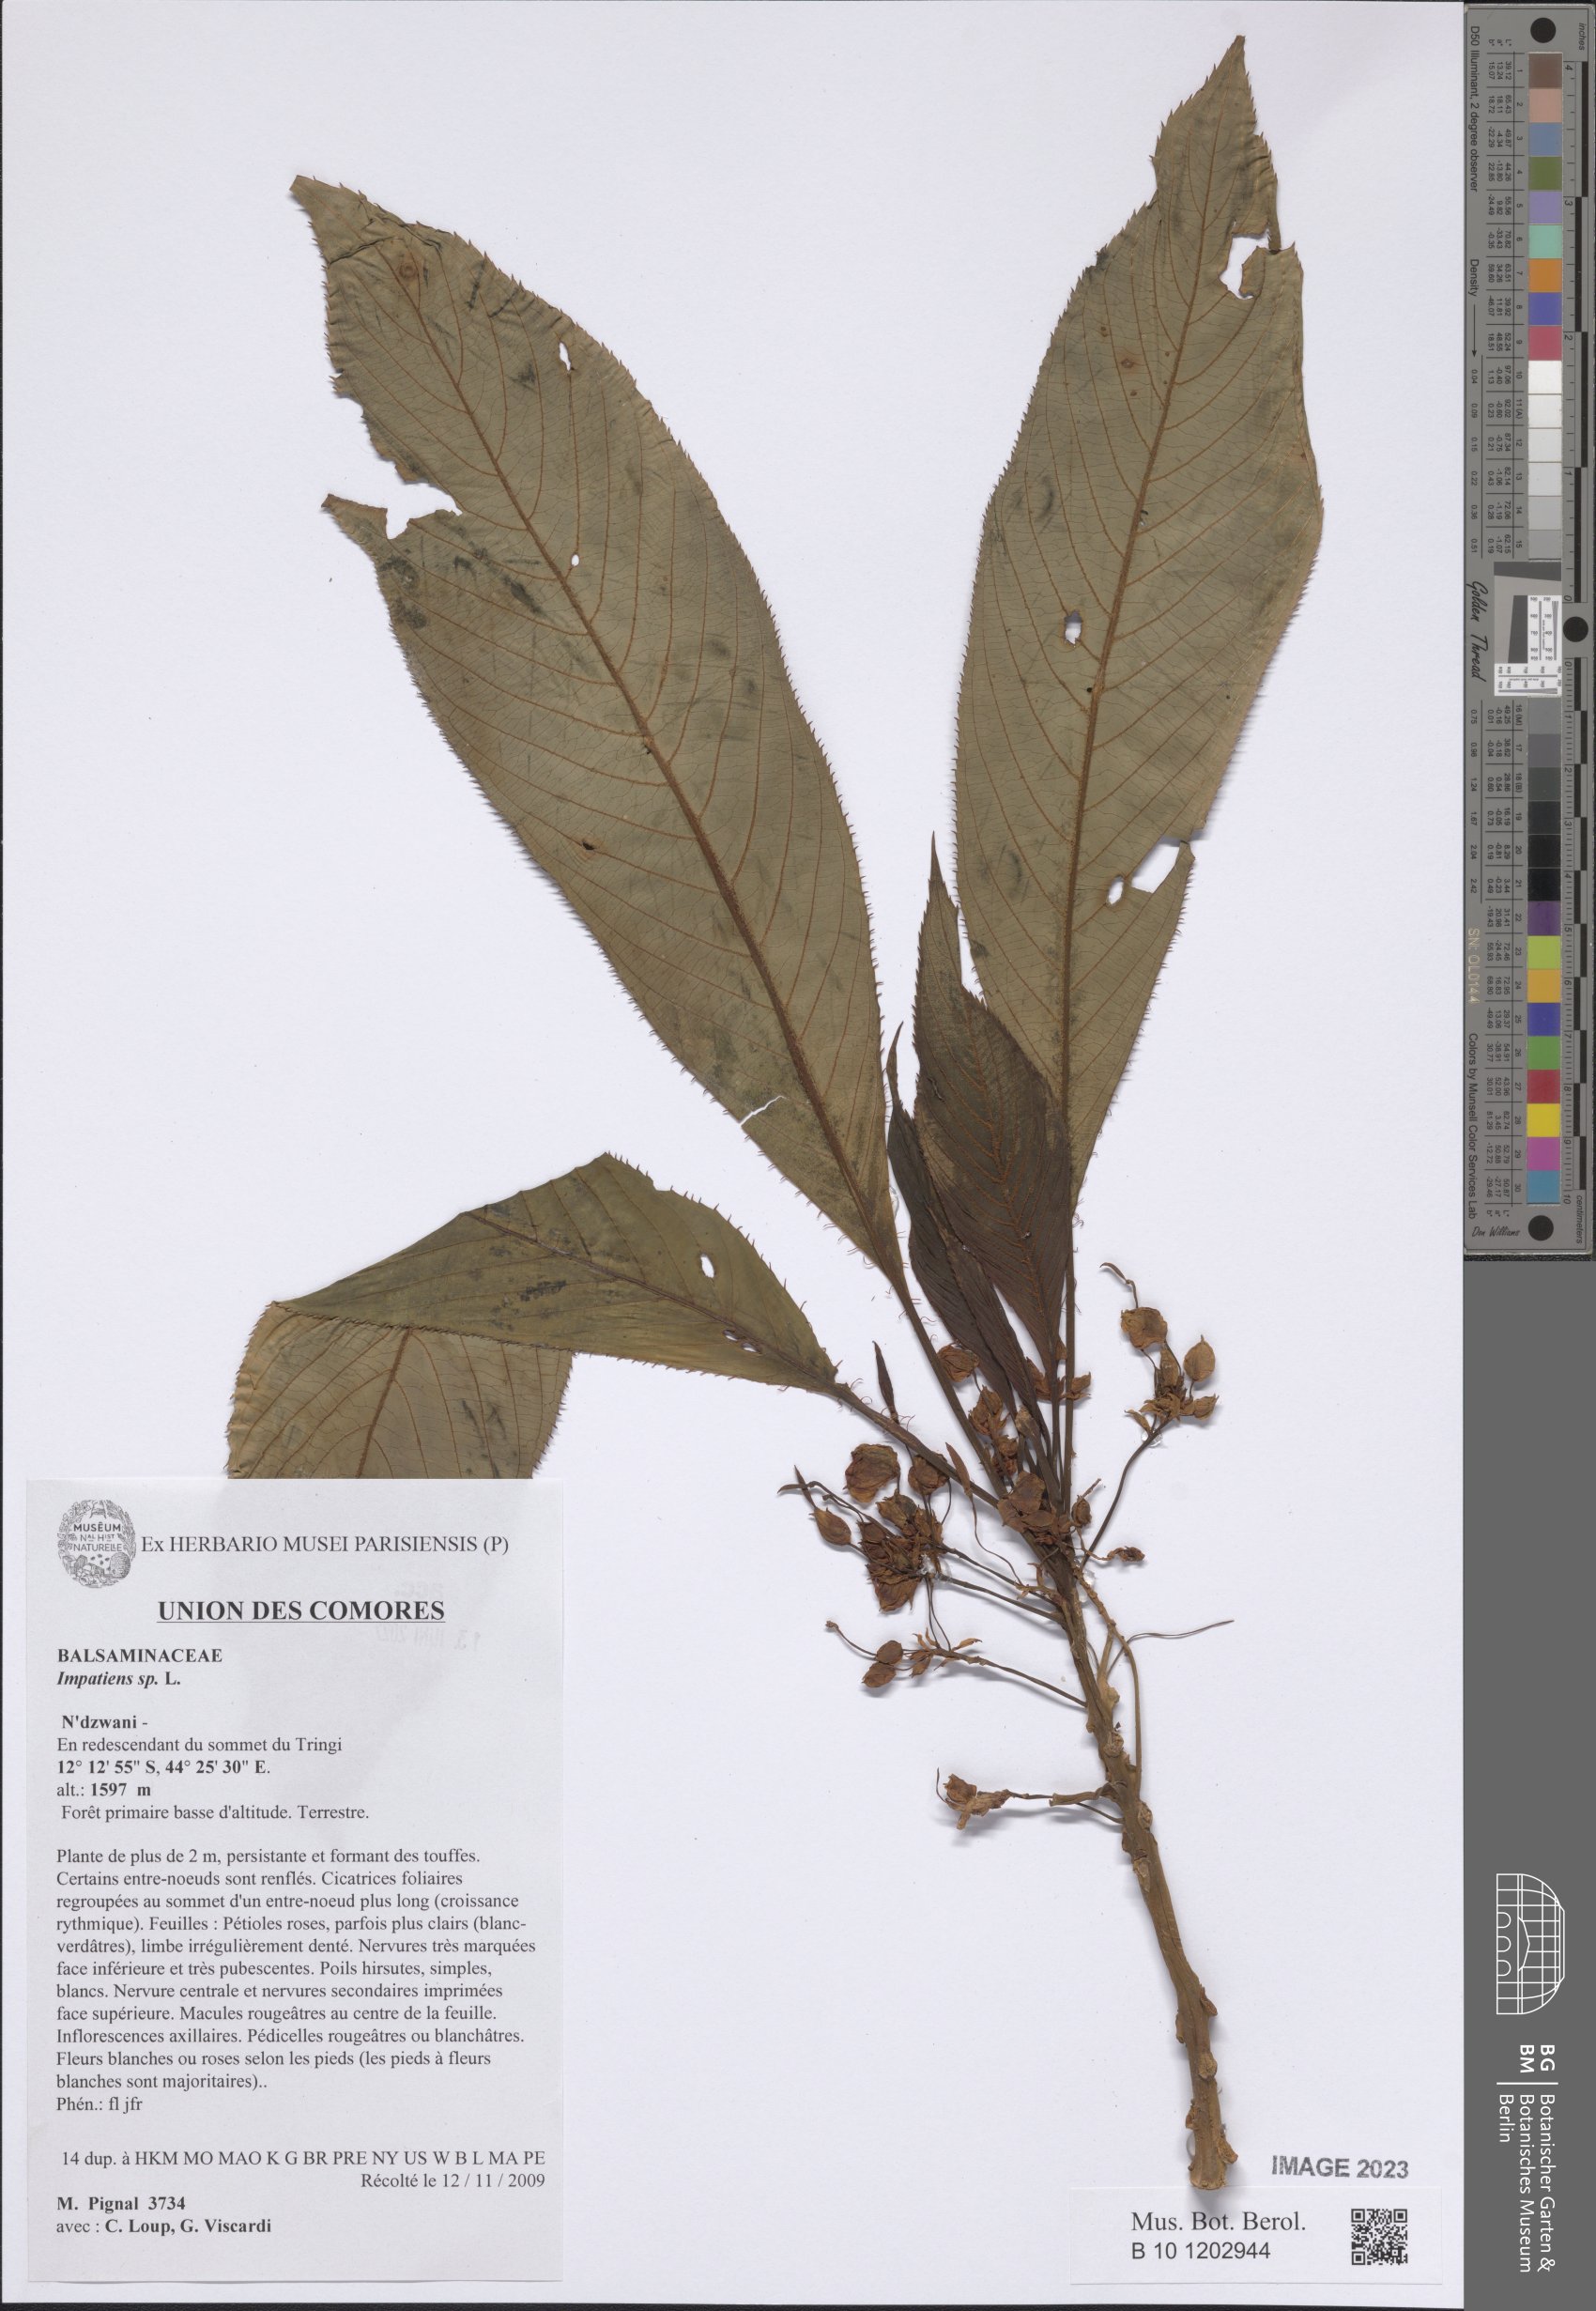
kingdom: Plantae
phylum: Tracheophyta
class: Magnoliopsida
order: Ericales
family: Balsaminaceae
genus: Impatiens
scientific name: Impatiens
